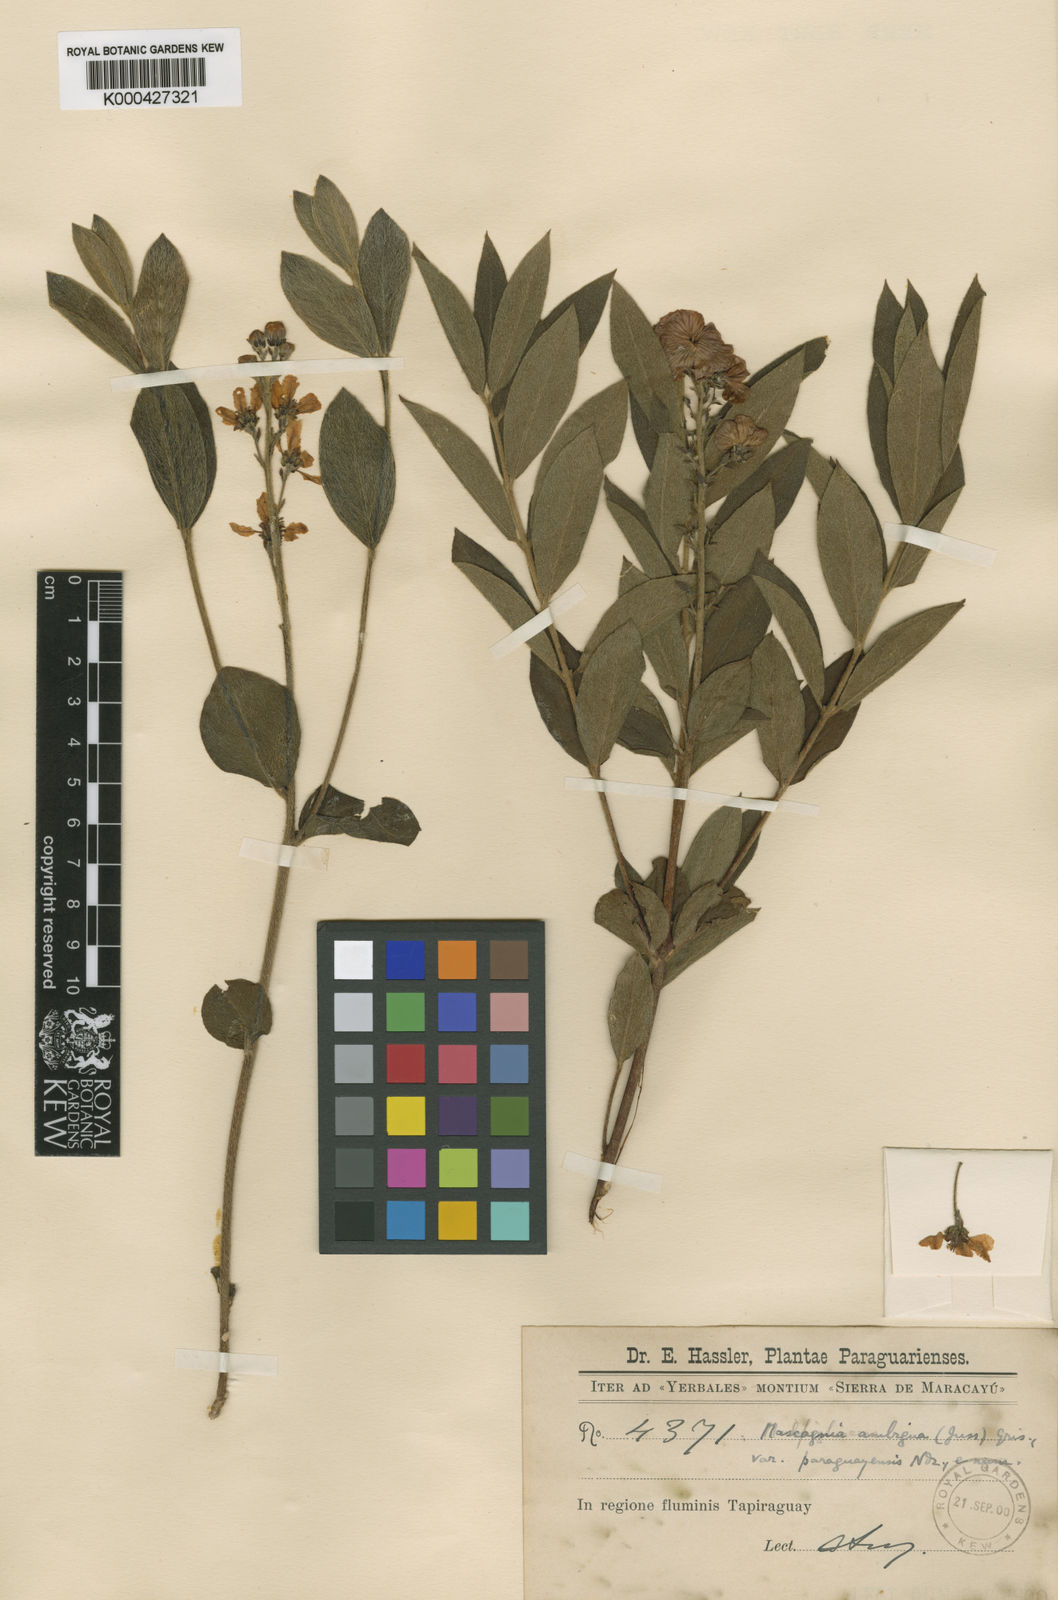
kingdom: Plantae
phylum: Tracheophyta
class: Magnoliopsida
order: Malpighiales
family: Malpighiaceae
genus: Glicophyllum
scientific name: Glicophyllum ambiguum
